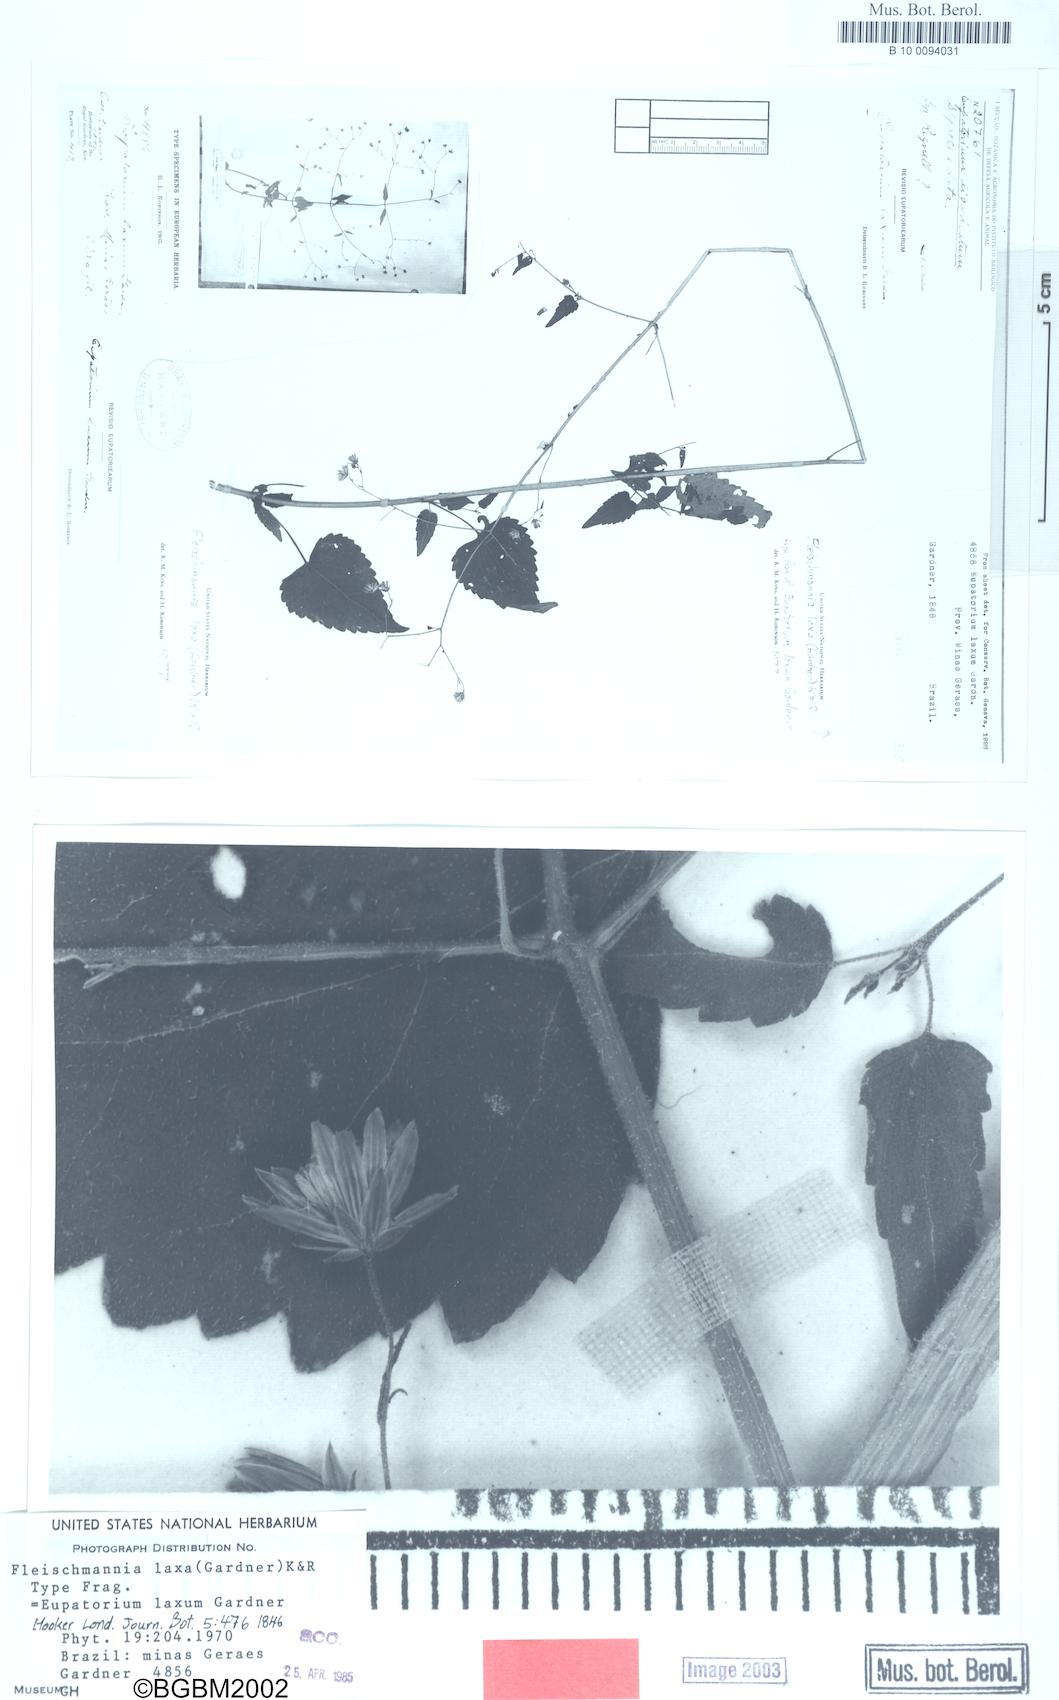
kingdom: Plantae
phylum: Tracheophyta
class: Magnoliopsida
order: Asterales
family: Asteraceae
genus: Fleischmannia
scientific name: Fleischmannia laxa
